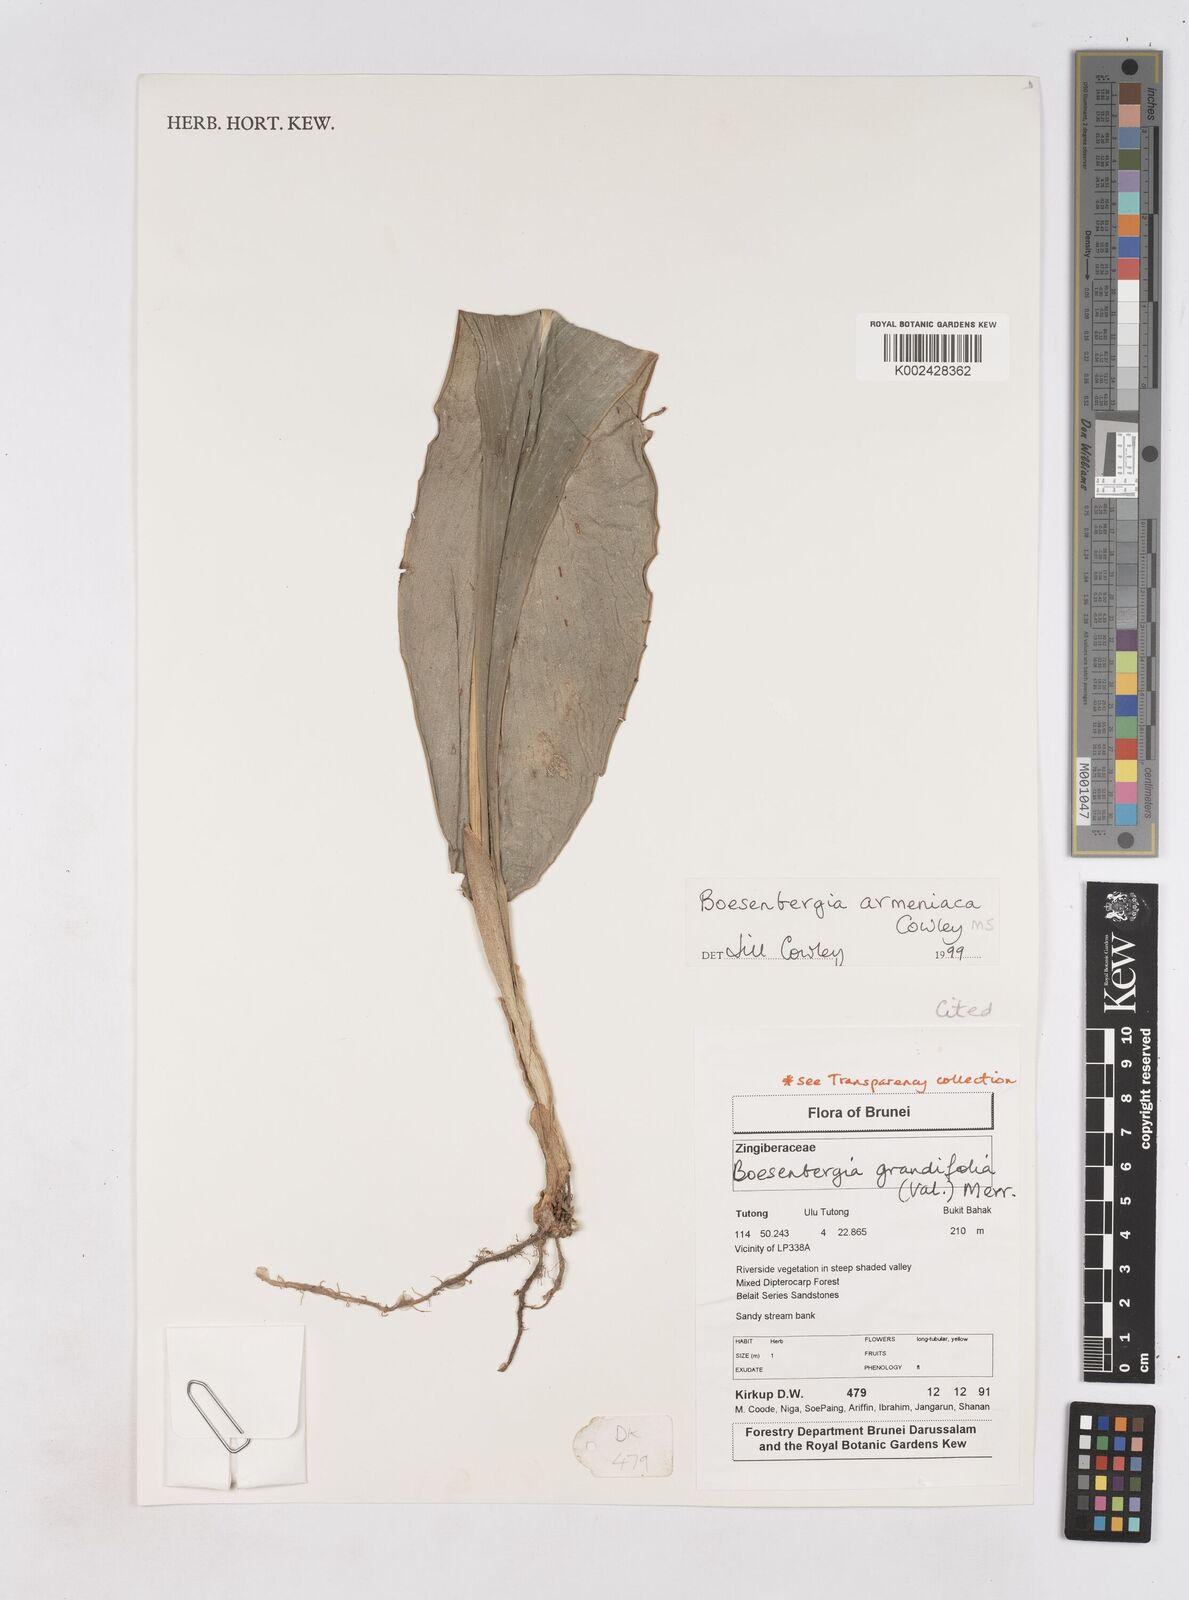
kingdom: Plantae
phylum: Tracheophyta
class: Liliopsida
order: Zingiberales
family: Zingiberaceae
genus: Boesenbergia
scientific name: Boesenbergia armeniaca
